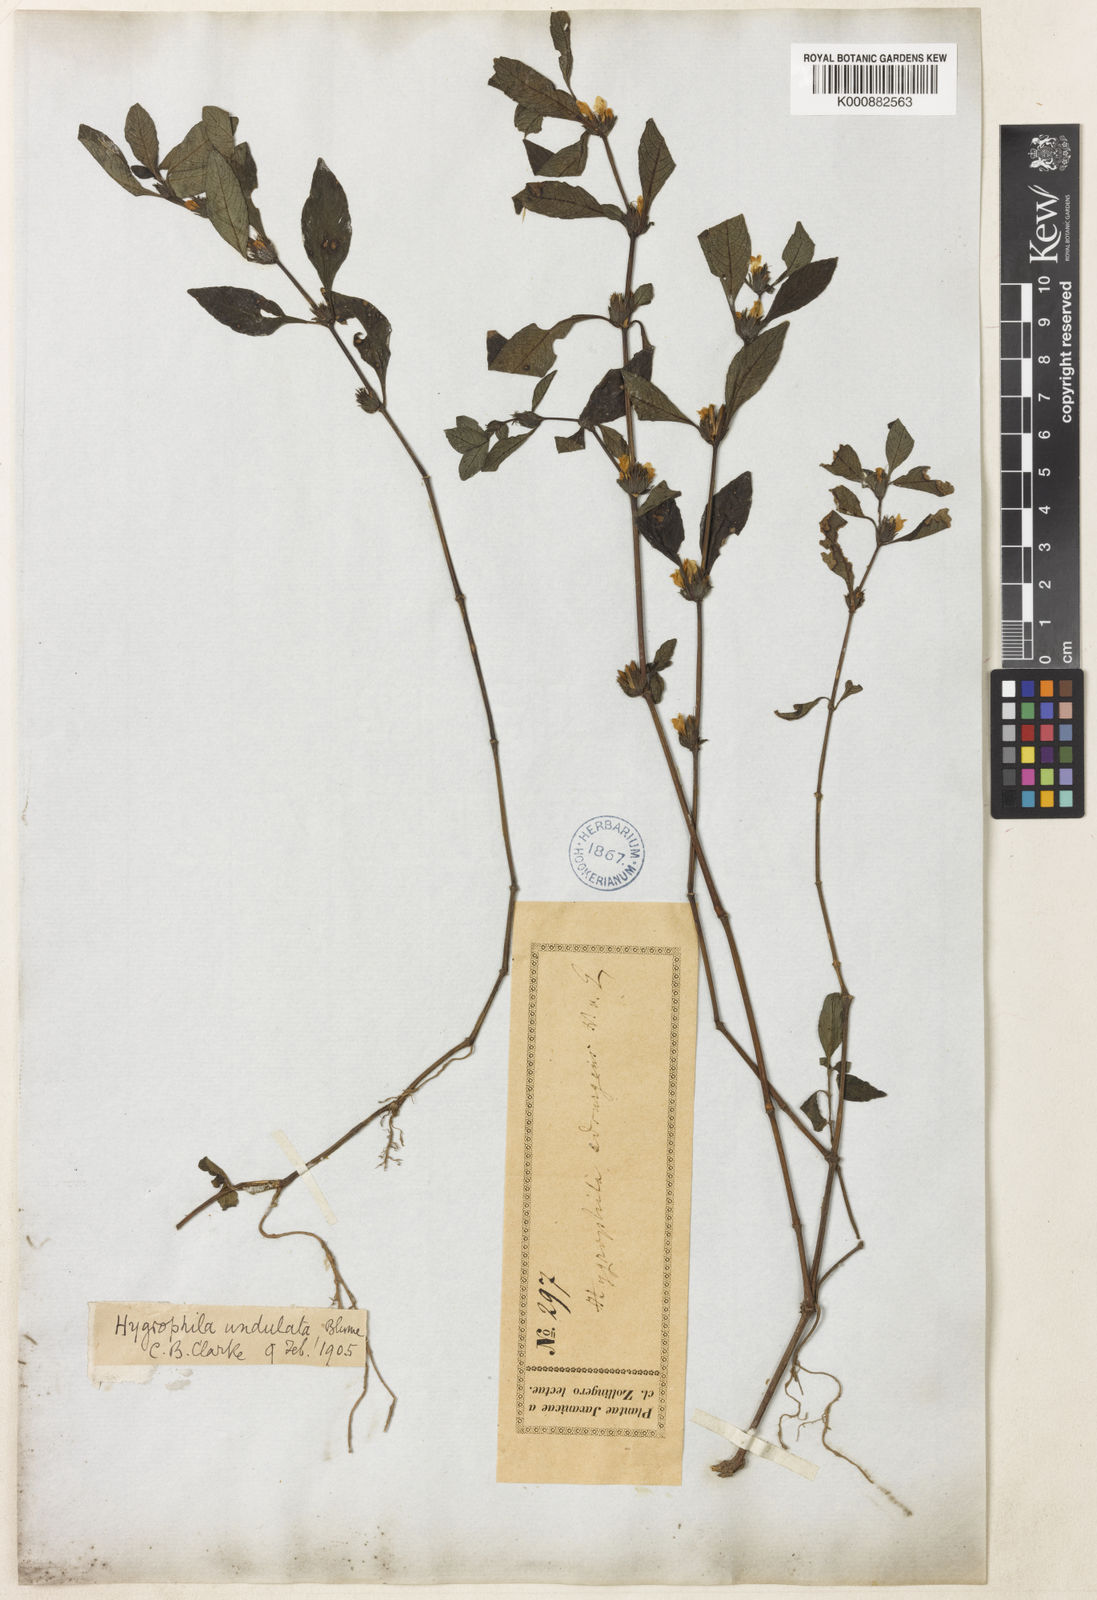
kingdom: Plantae
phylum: Tracheophyta
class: Magnoliopsida
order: Lamiales
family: Acanthaceae
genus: Hygrophila
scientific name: Hygrophila ringens
